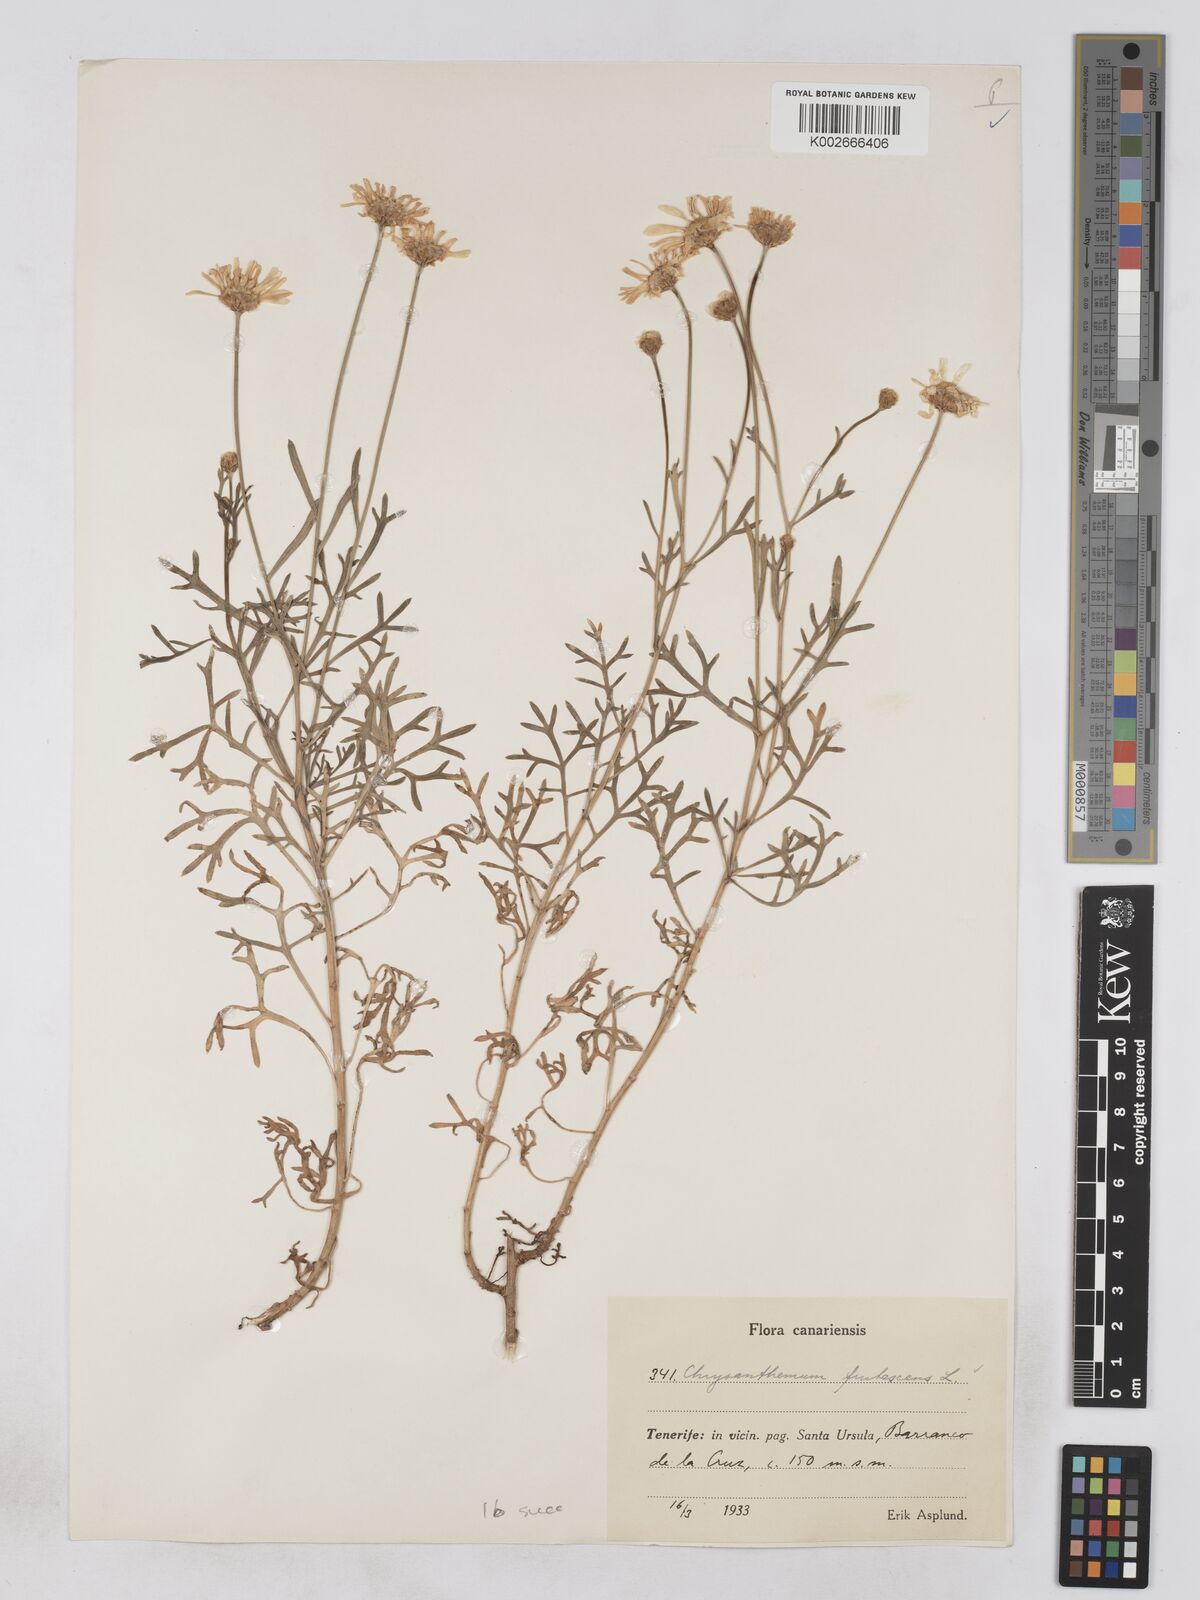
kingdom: Plantae
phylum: Tracheophyta
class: Magnoliopsida
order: Asterales
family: Asteraceae
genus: Argyranthemum
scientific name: Argyranthemum frutescens
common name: Paris daisy
